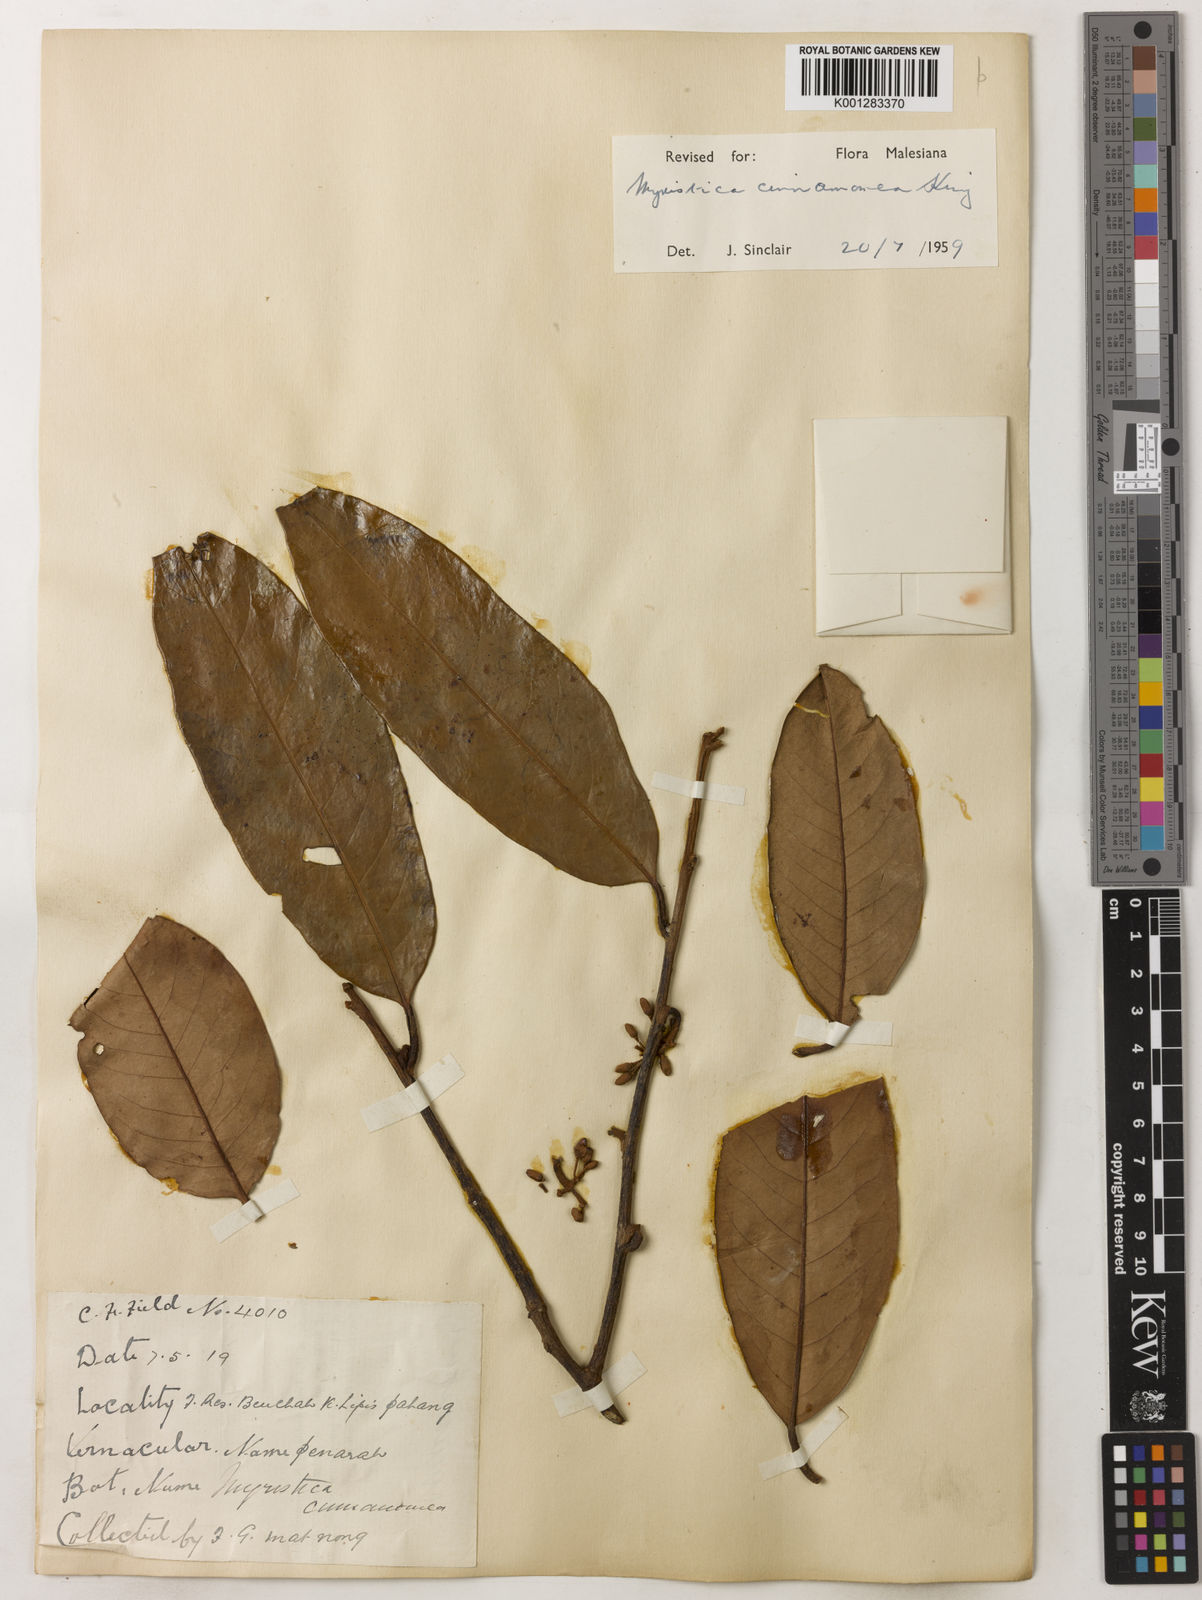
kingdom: Plantae
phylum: Tracheophyta
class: Magnoliopsida
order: Magnoliales
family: Myristicaceae
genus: Myristica
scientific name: Myristica cinnamomea
